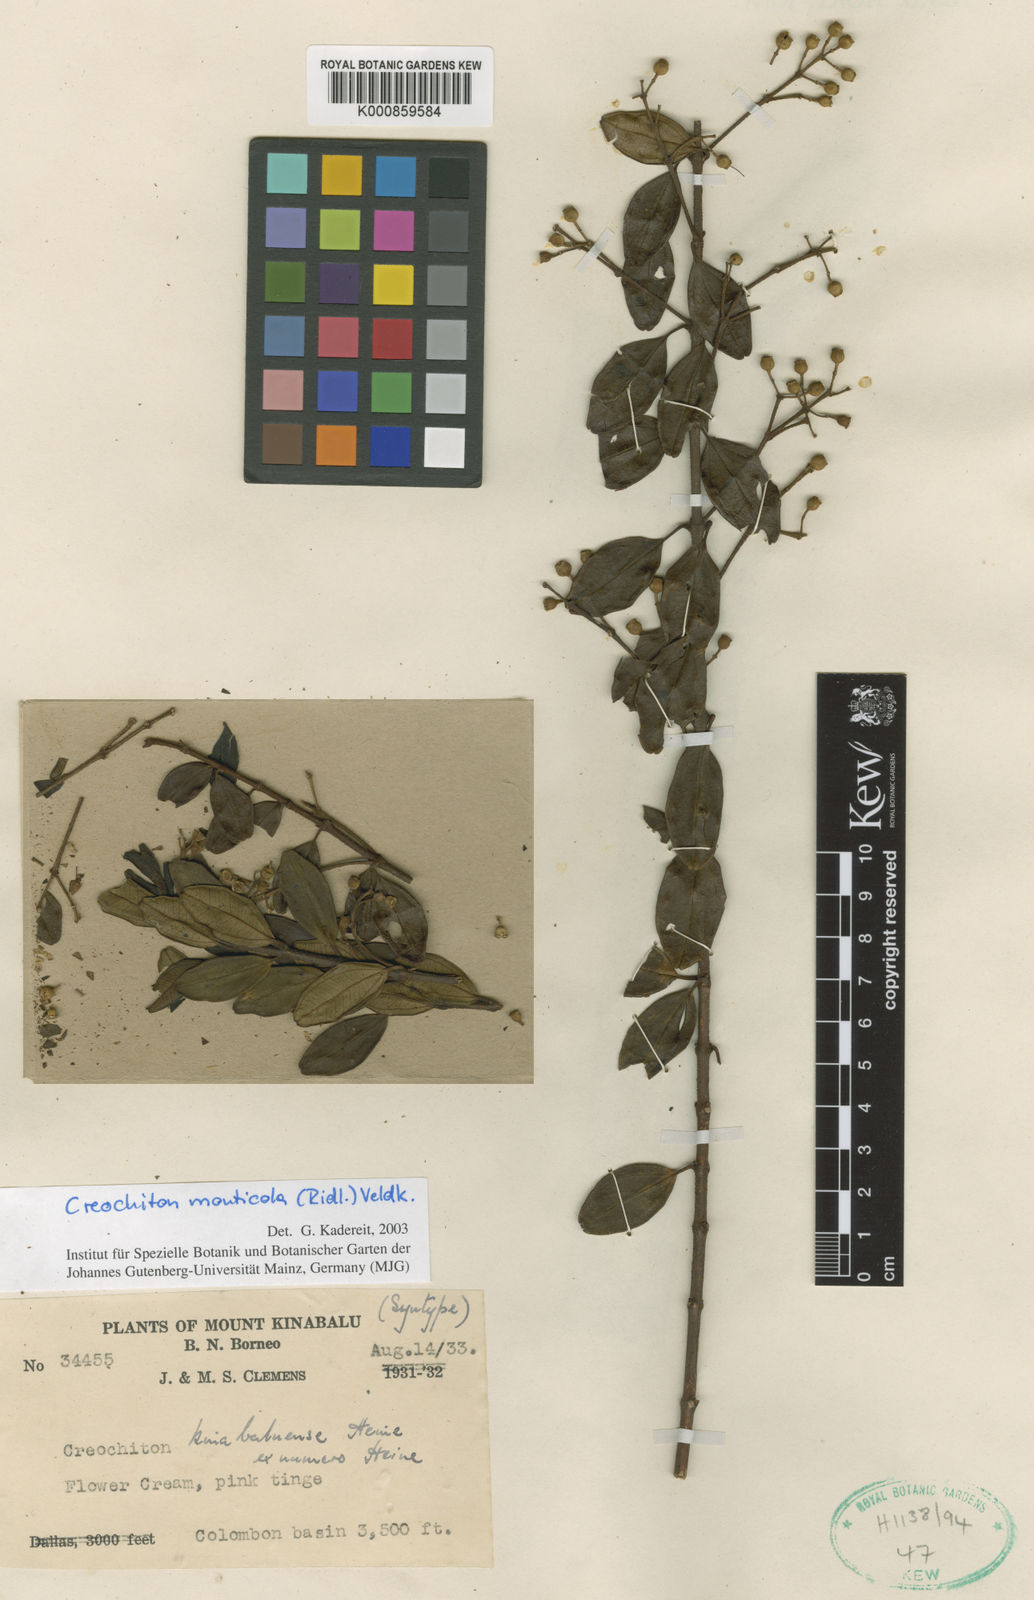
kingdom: Plantae
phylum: Tracheophyta
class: Magnoliopsida
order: Myrtales
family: Melastomataceae
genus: Creochiton
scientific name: Creochiton monticola
